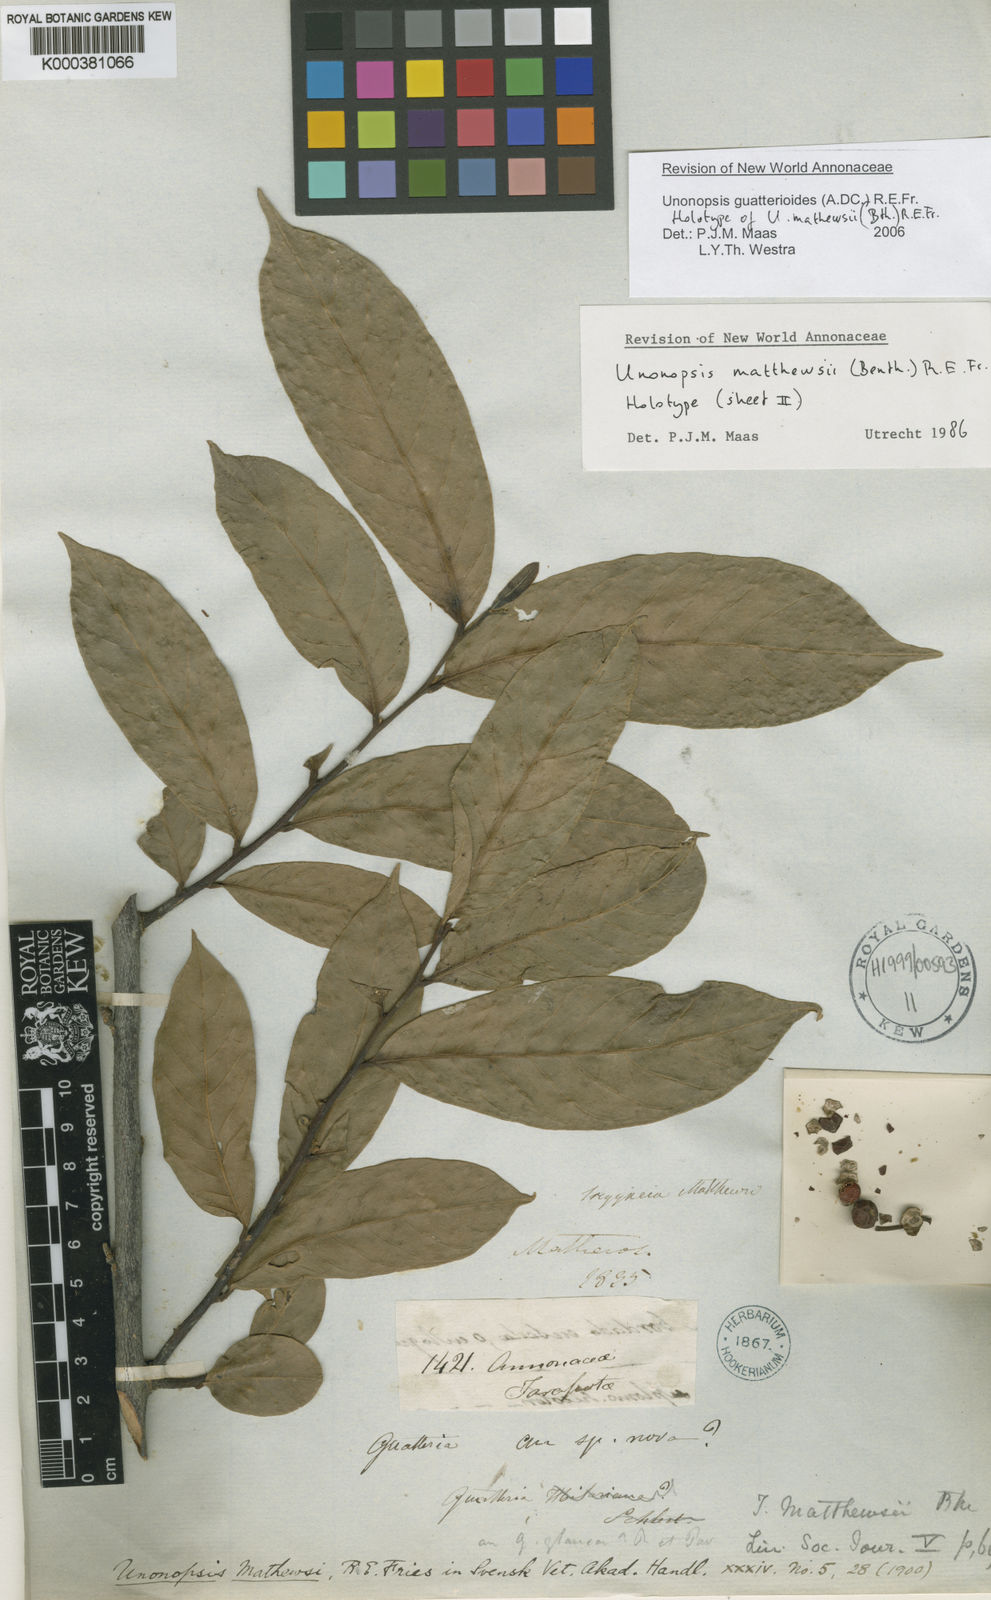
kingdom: Plantae
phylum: Tracheophyta
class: Magnoliopsida
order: Magnoliales
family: Annonaceae
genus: Unonopsis
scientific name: Unonopsis guatterioides
